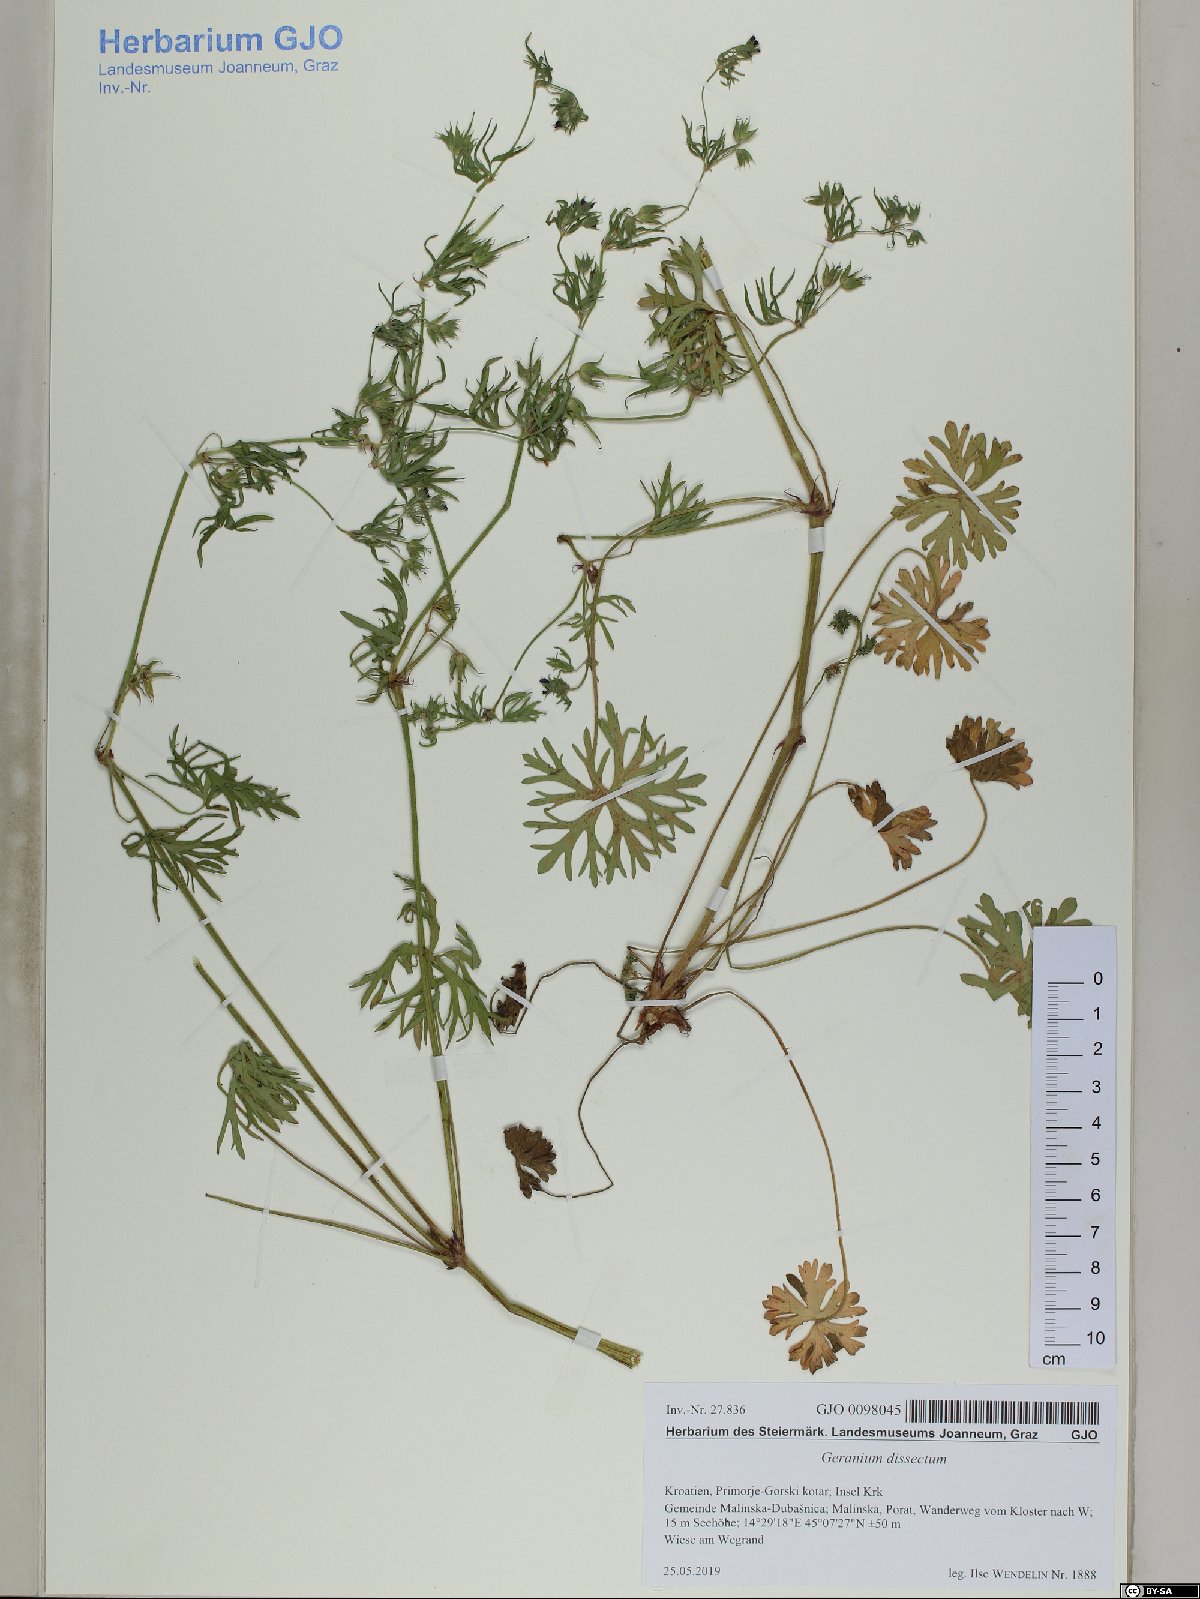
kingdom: Plantae
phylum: Tracheophyta
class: Magnoliopsida
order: Geraniales
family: Geraniaceae
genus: Geranium
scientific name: Geranium dissectum
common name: Cut-leaved crane's-bill
